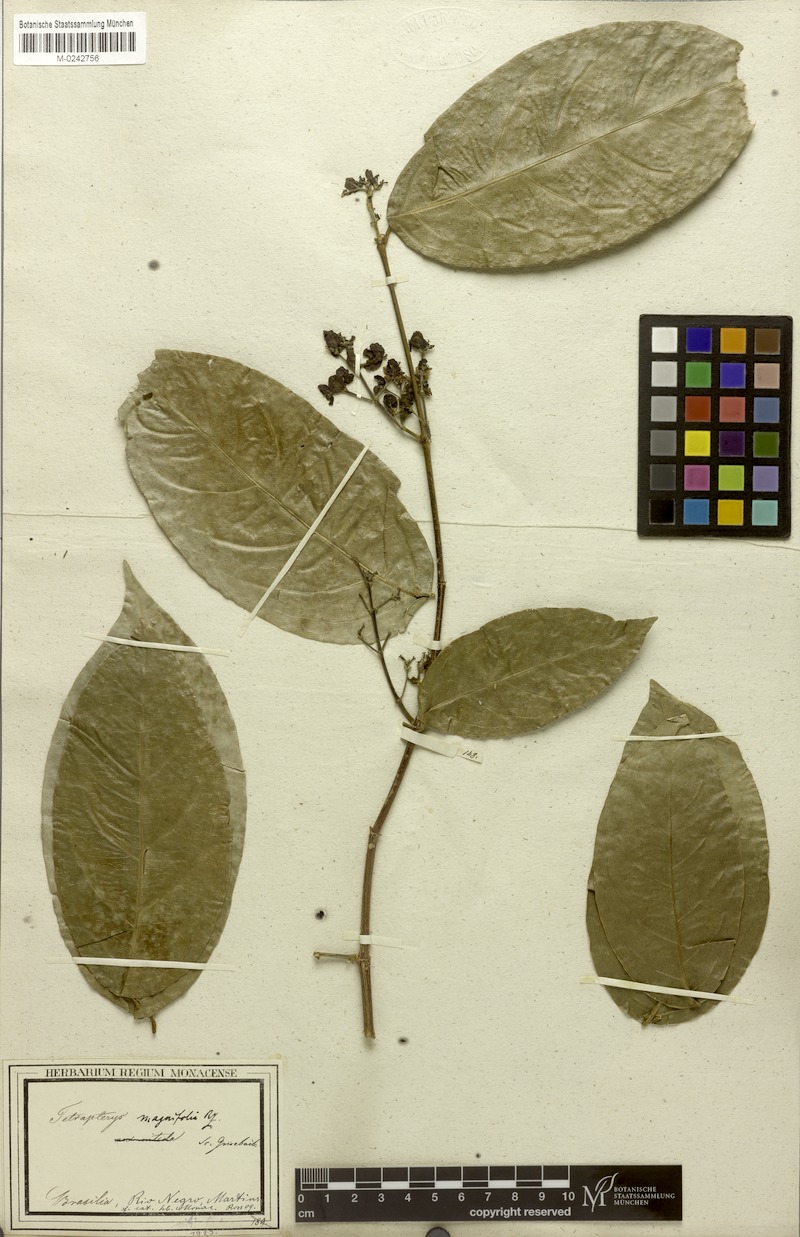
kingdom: Plantae
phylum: Tracheophyta
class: Magnoliopsida
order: Malpighiales
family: Malpighiaceae
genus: Tetrapterys
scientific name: Tetrapterys magnifolia
